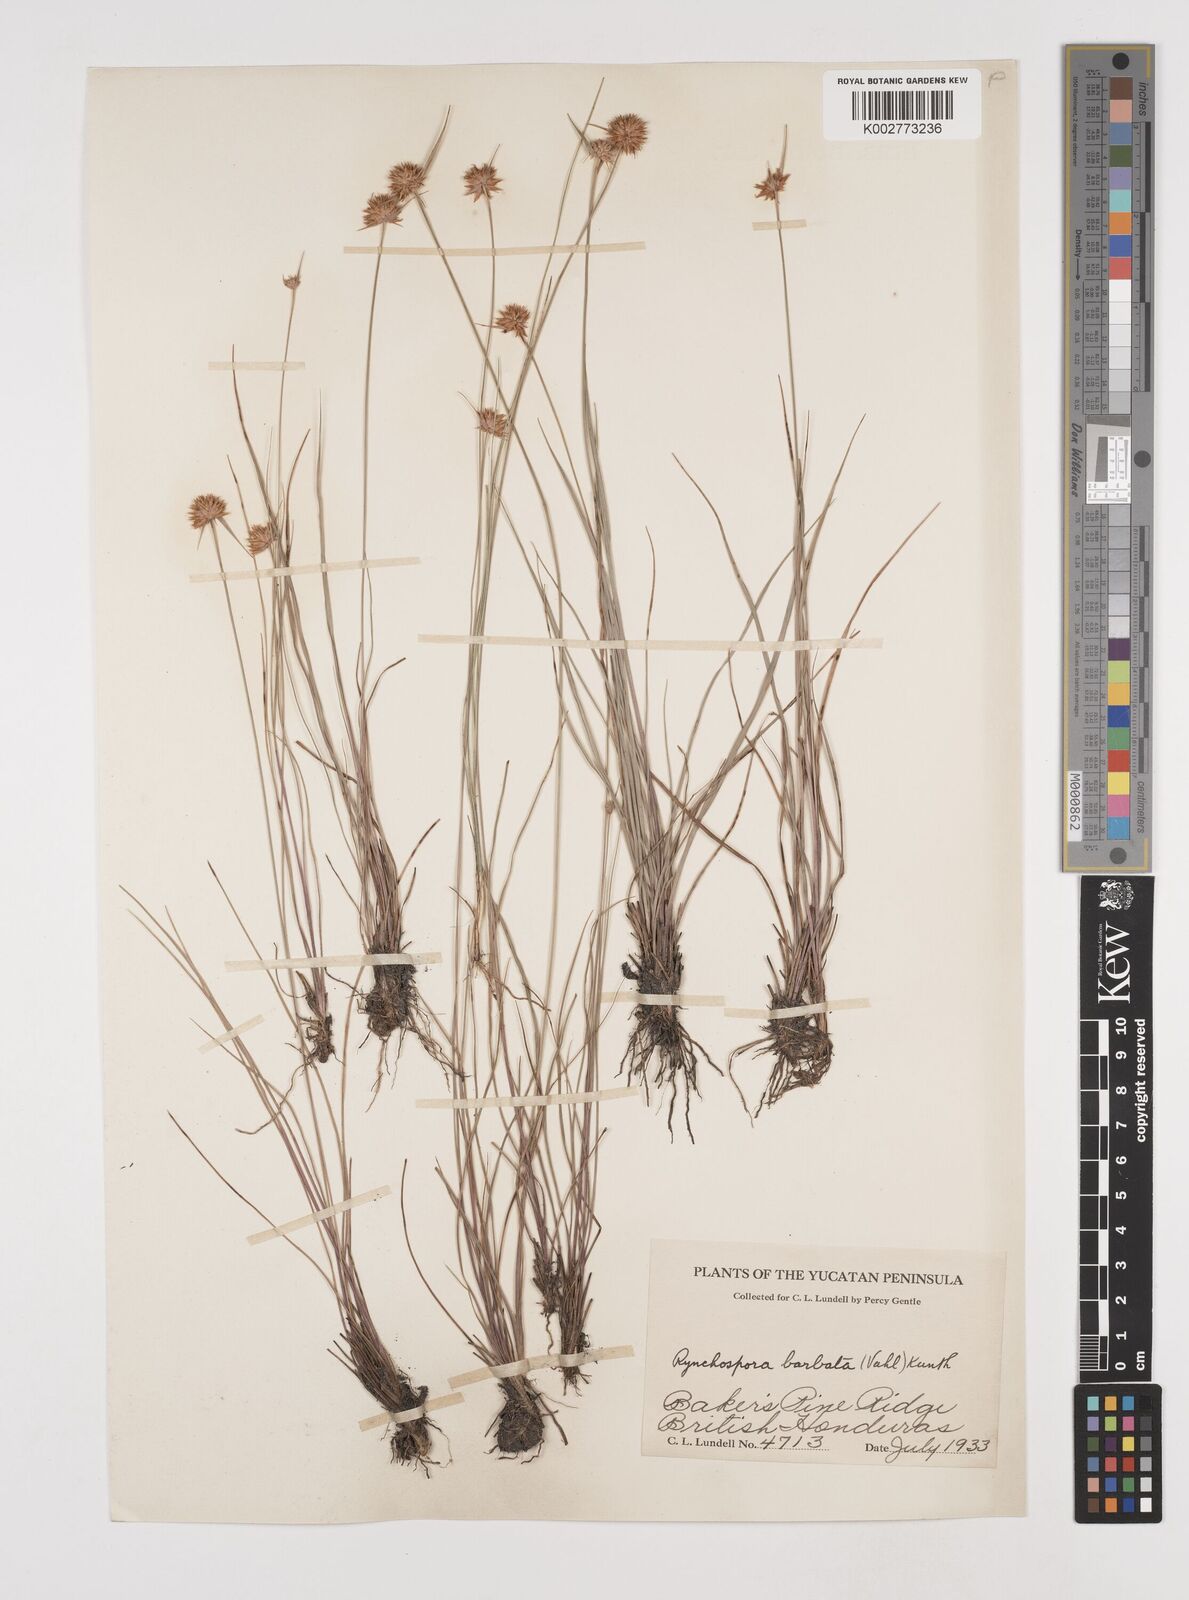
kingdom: Plantae
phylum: Tracheophyta
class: Liliopsida
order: Poales
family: Cyperaceae
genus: Rhynchospora
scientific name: Rhynchospora barbata
